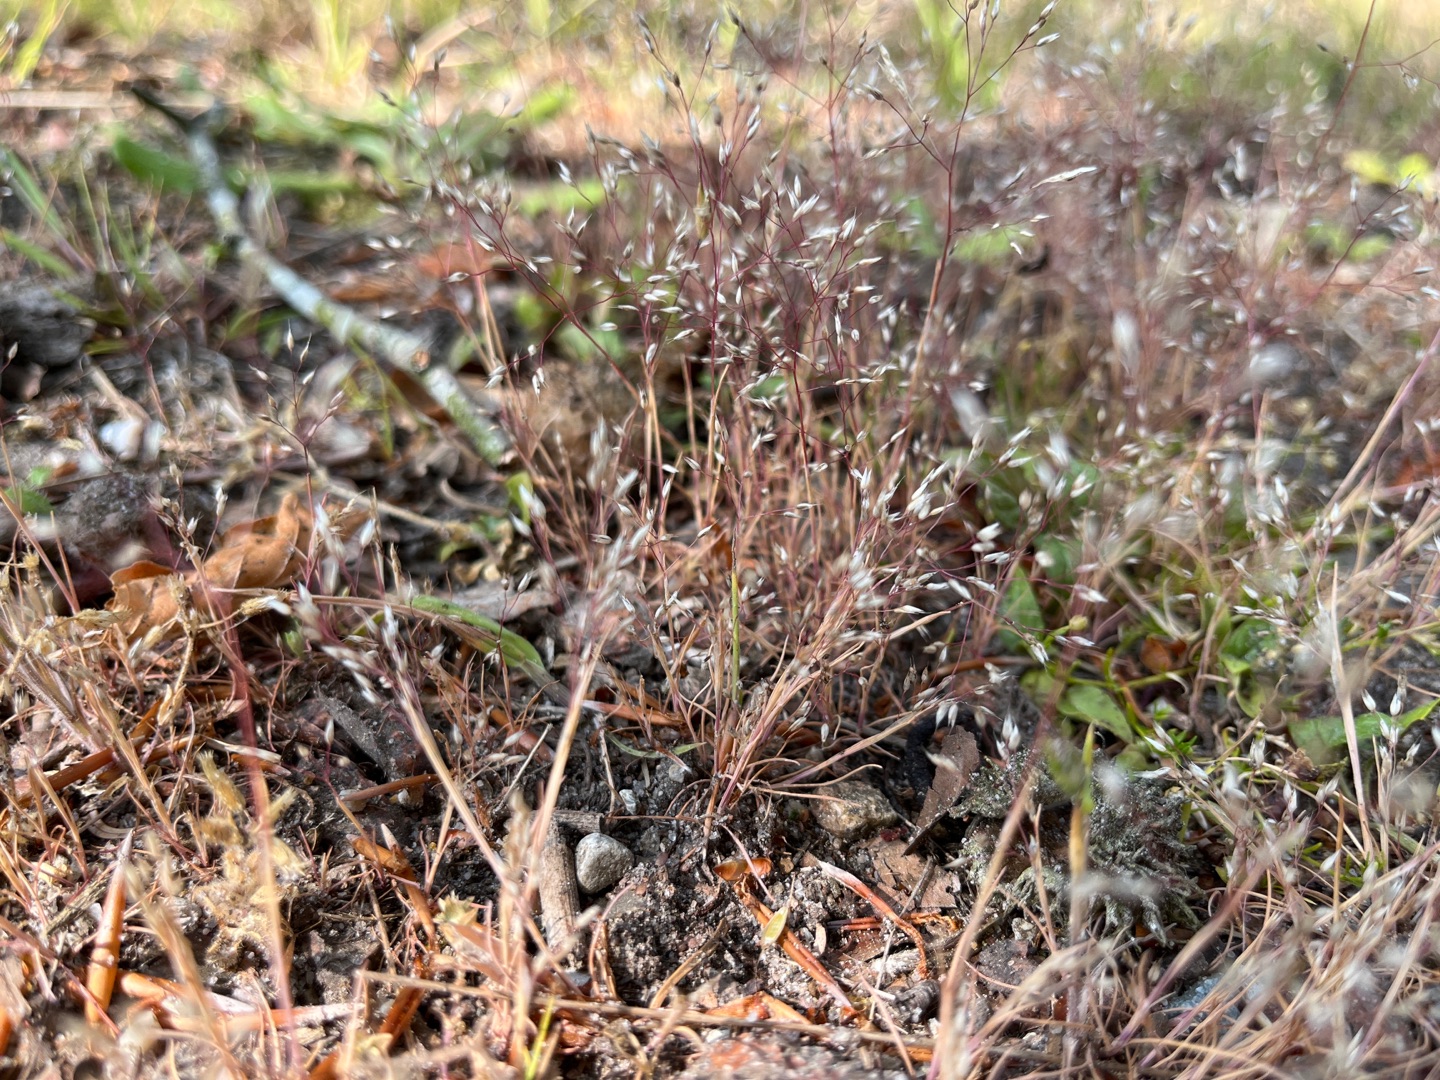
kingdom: Plantae
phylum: Tracheophyta
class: Liliopsida
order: Poales
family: Poaceae
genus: Aira
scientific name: Aira caryophyllea
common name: Udspærret dværgbunke
